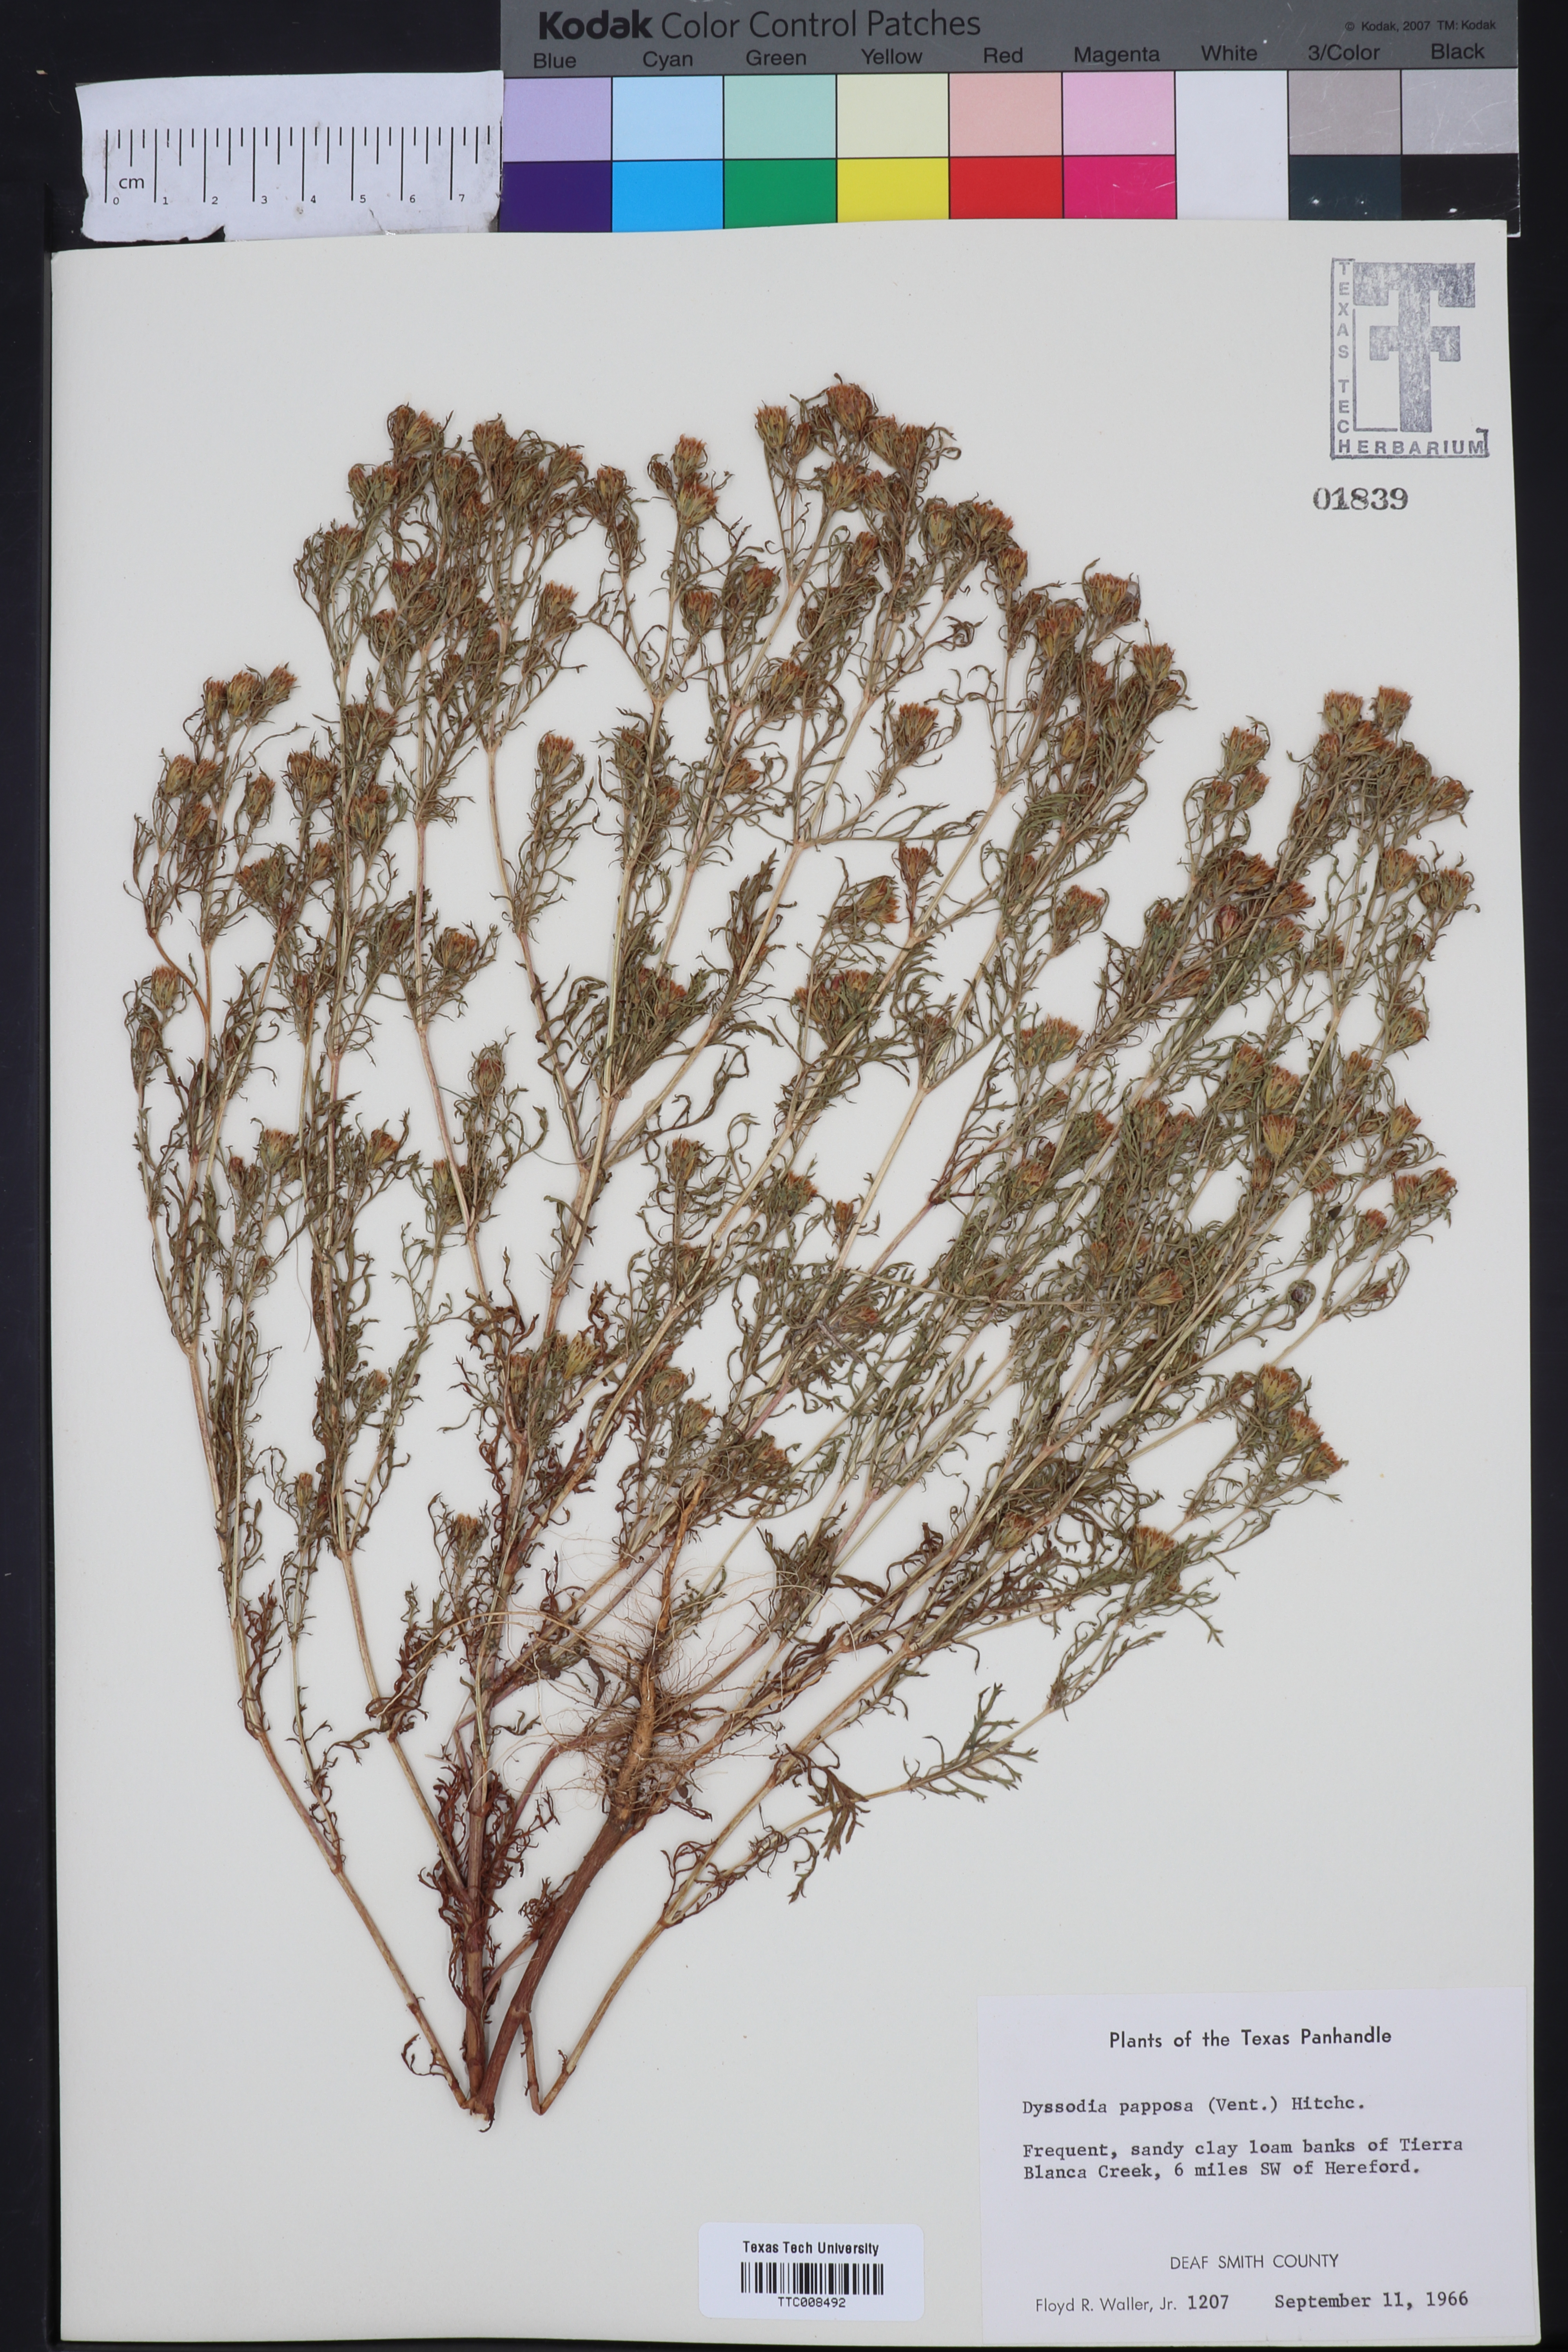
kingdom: Plantae
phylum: Tracheophyta
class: Magnoliopsida
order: Asterales
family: Asteraceae
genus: Dyssodia
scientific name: Dyssodia papposa
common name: Dogweed
